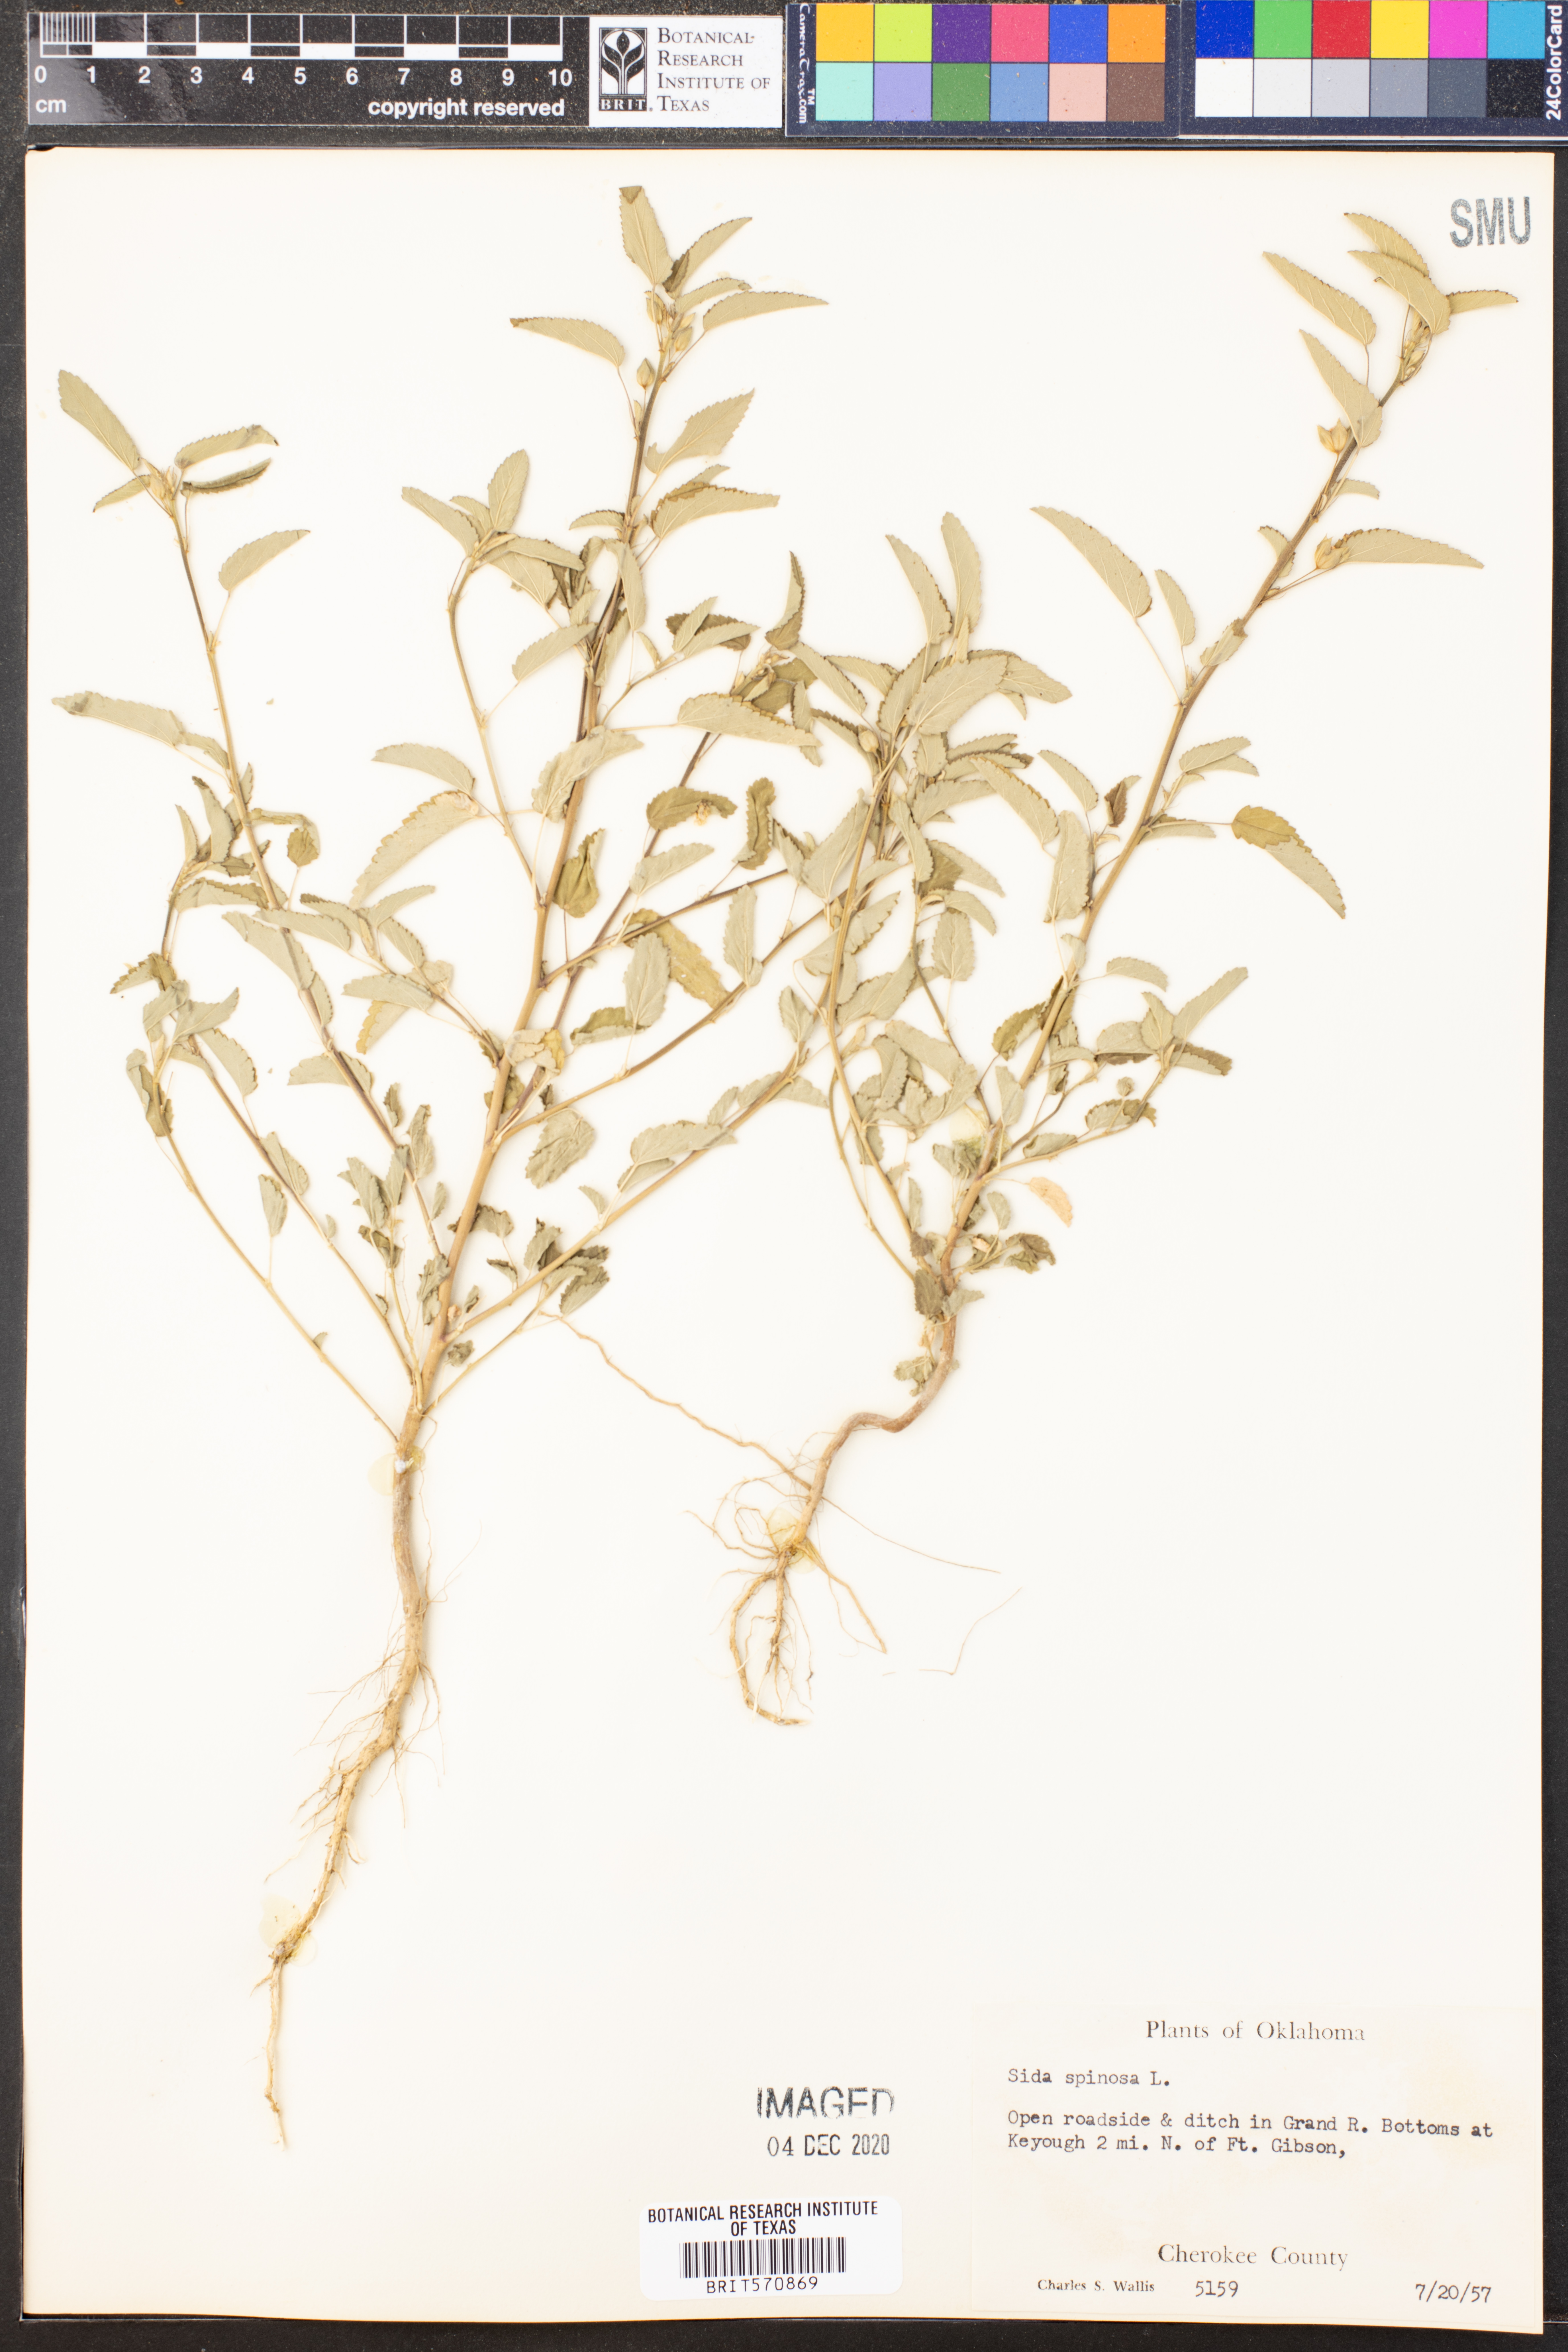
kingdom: Plantae
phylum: Tracheophyta
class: Magnoliopsida
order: Malvales
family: Malvaceae
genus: Sida
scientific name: Sida spinosa
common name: Prickly fanpetals
